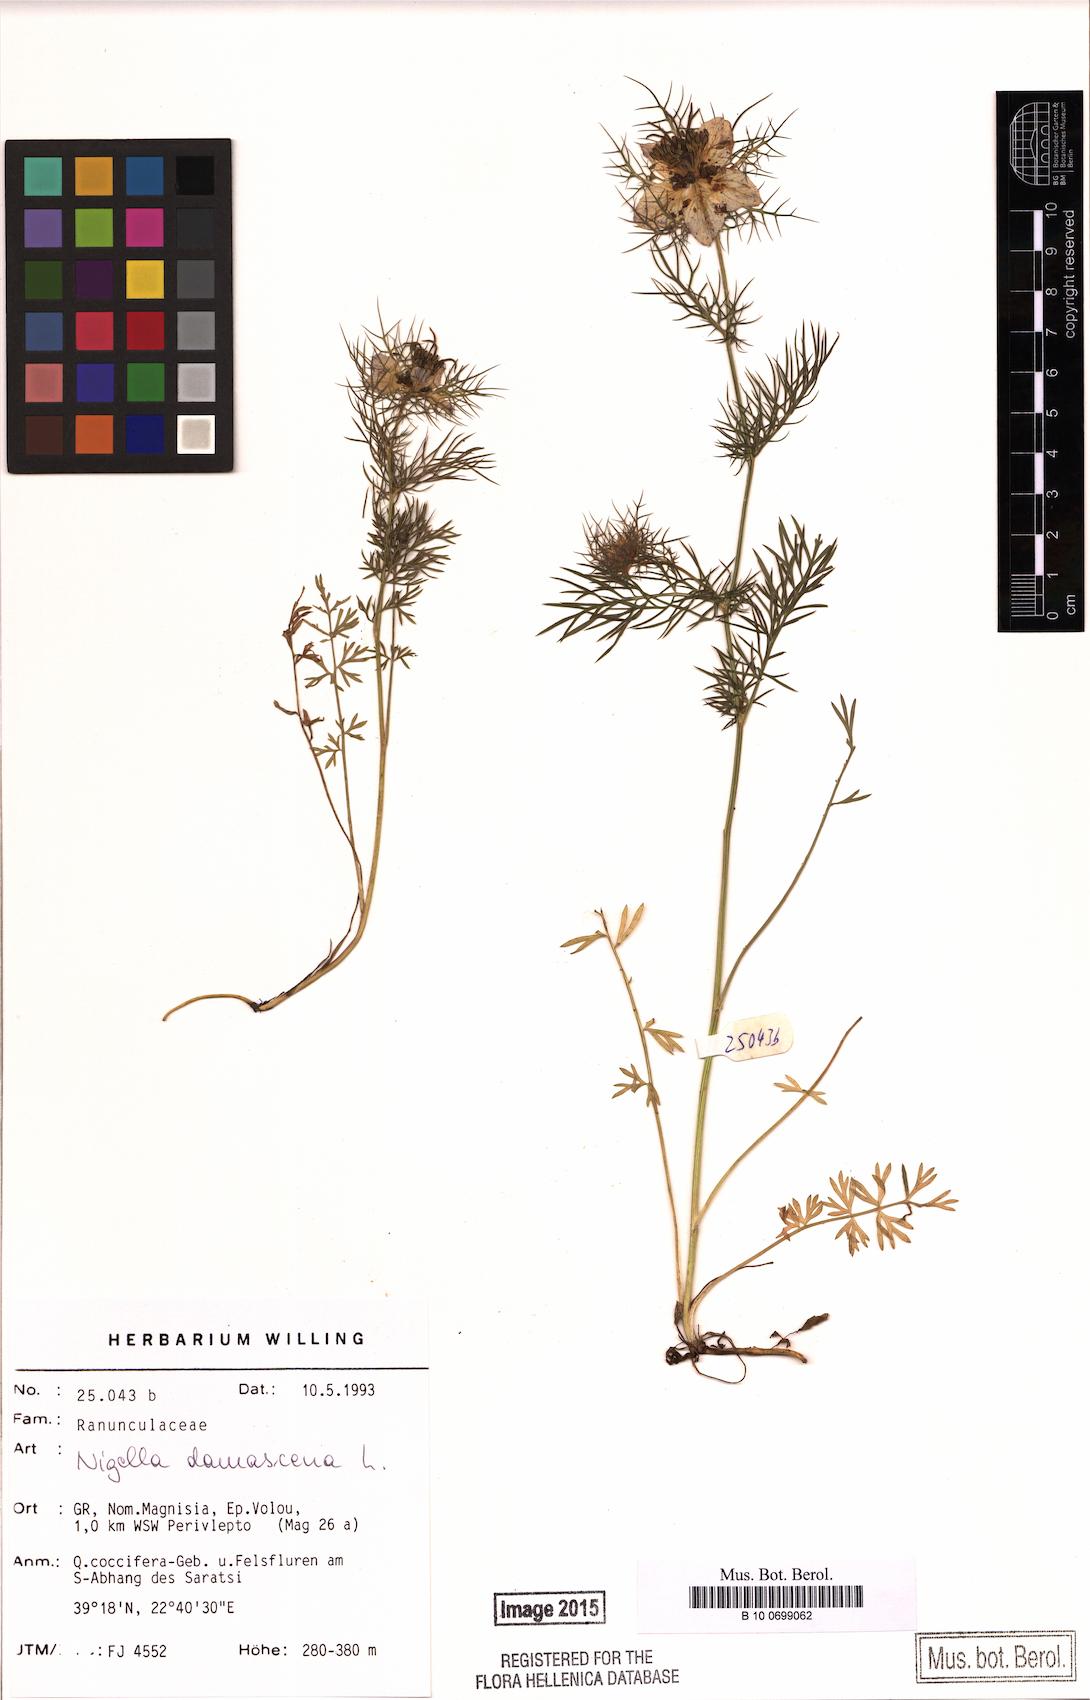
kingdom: Plantae
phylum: Tracheophyta
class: Magnoliopsida
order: Ranunculales
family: Ranunculaceae
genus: Nigella
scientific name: Nigella damascena
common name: Love-in-a-mist
